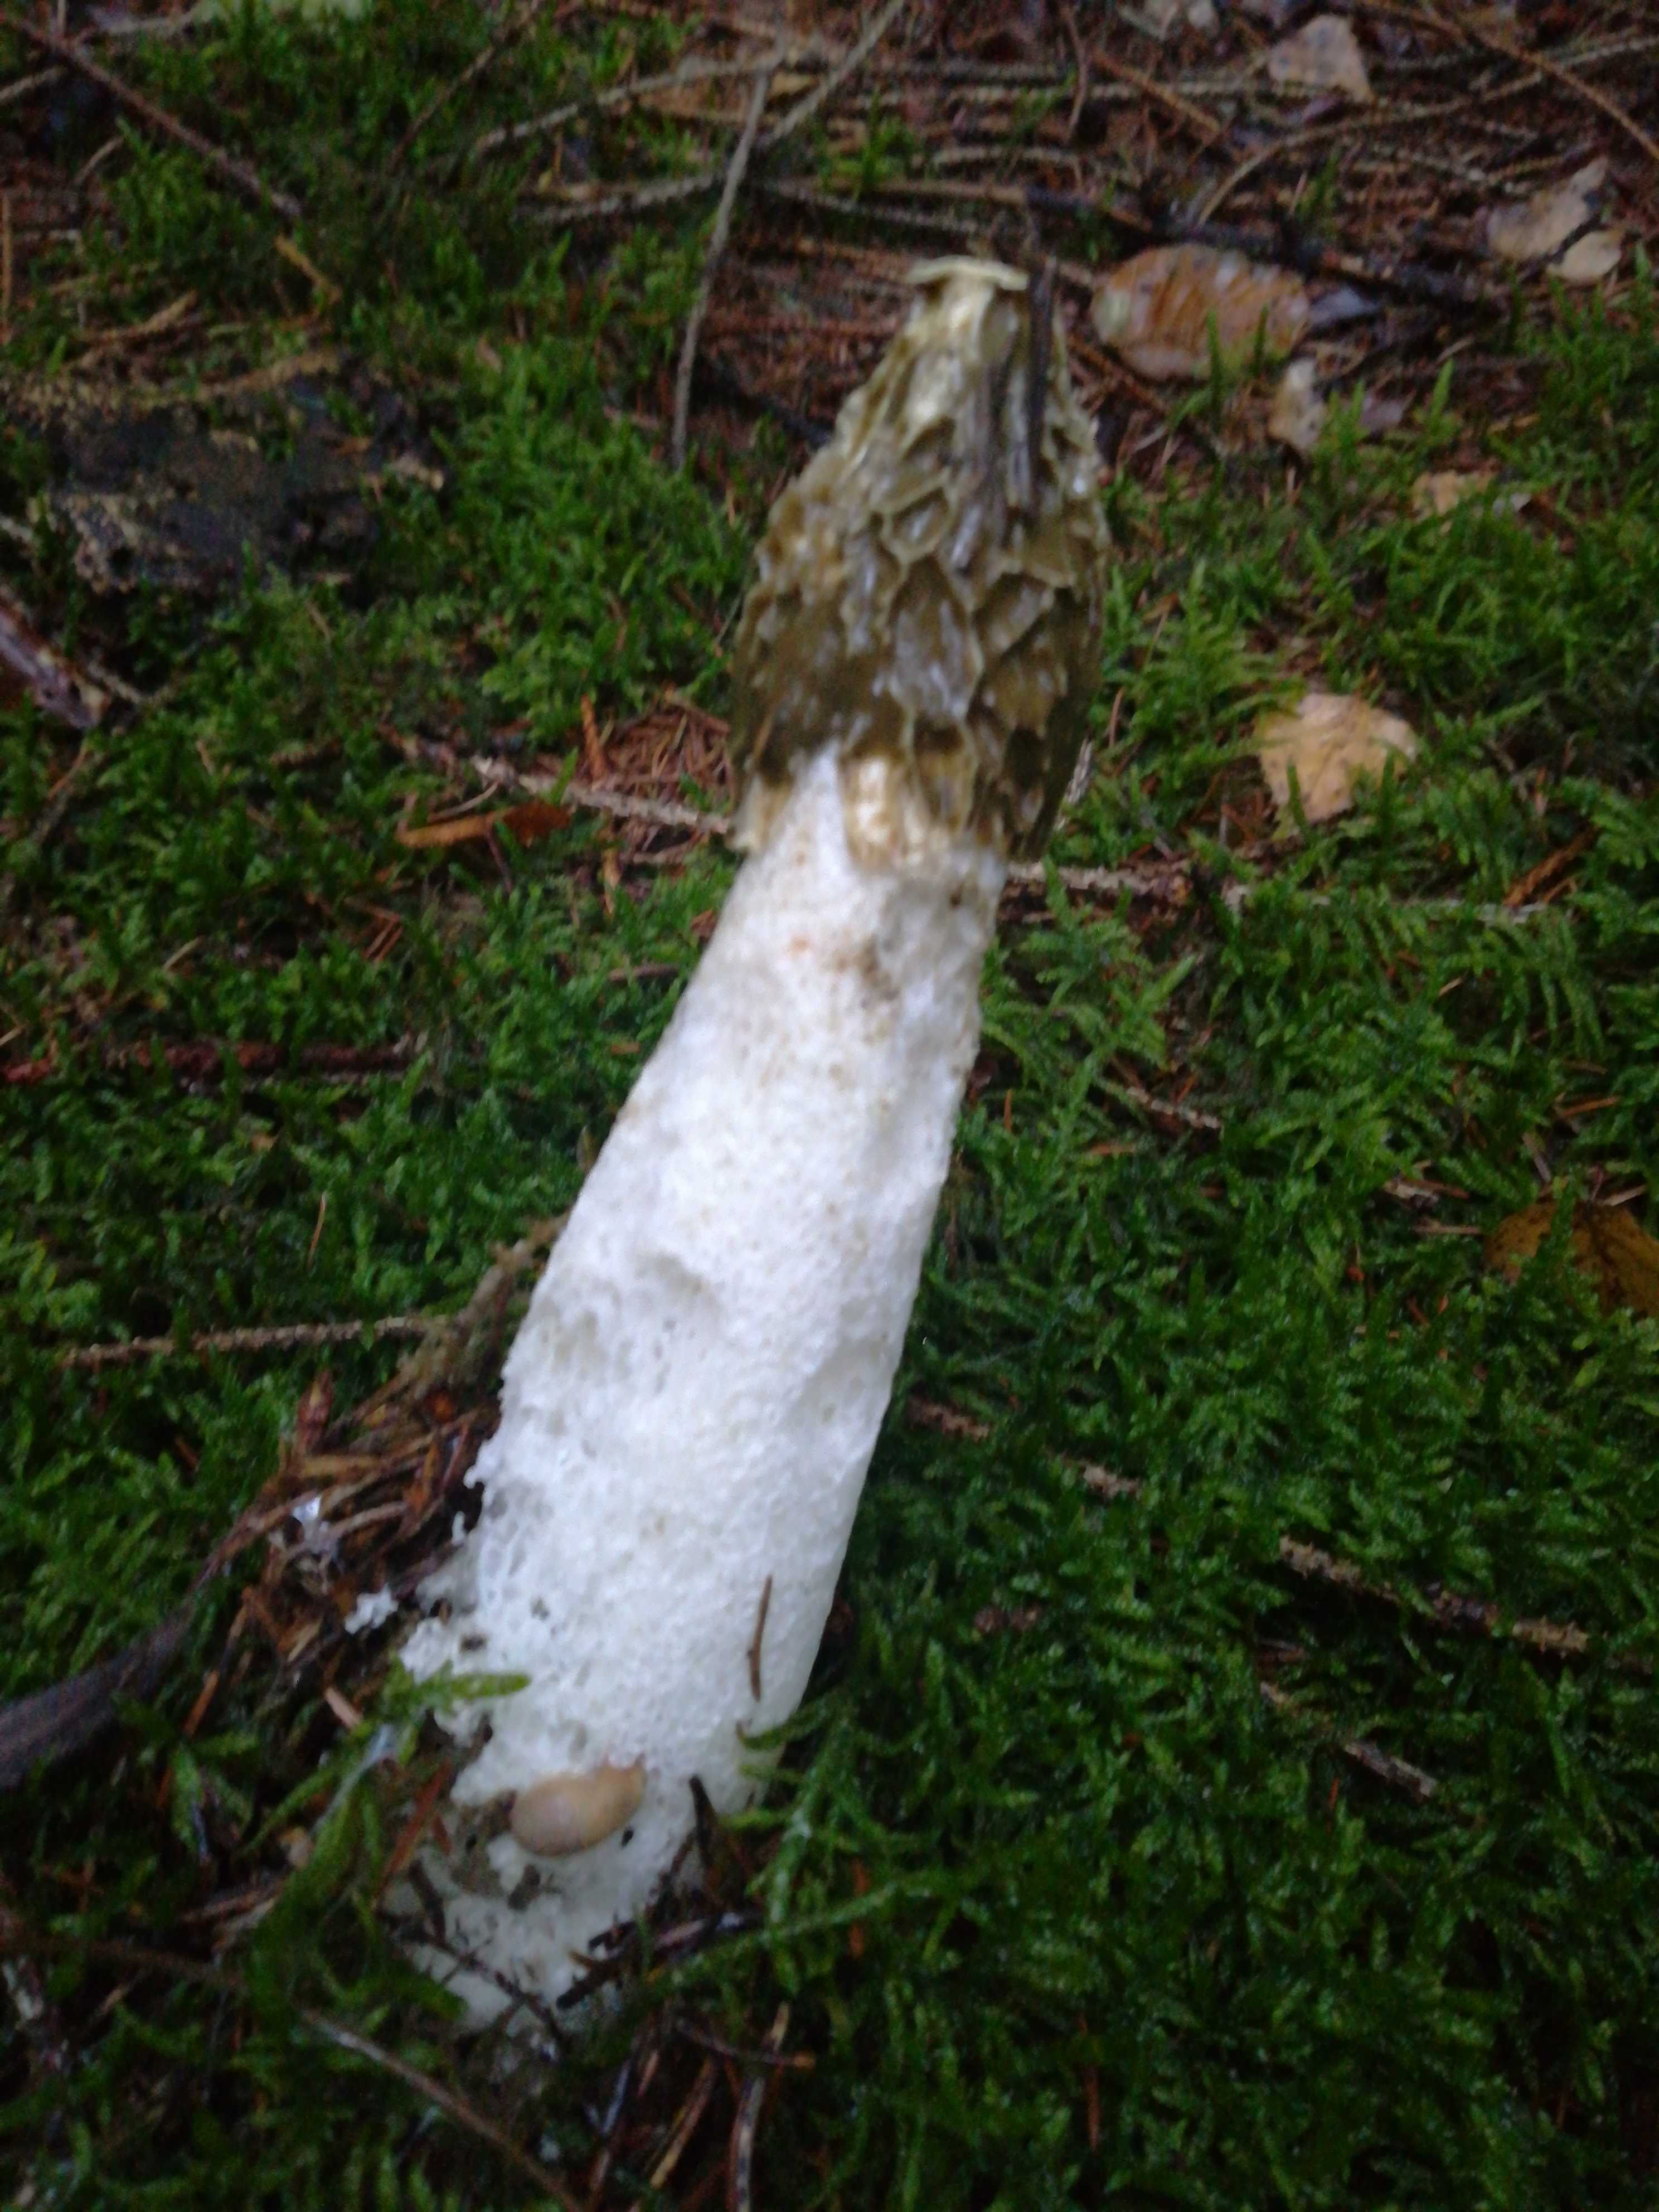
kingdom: Fungi
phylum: Basidiomycota
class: Agaricomycetes
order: Phallales
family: Phallaceae
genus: Phallus
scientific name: Phallus impudicus
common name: almindelig stinksvamp
